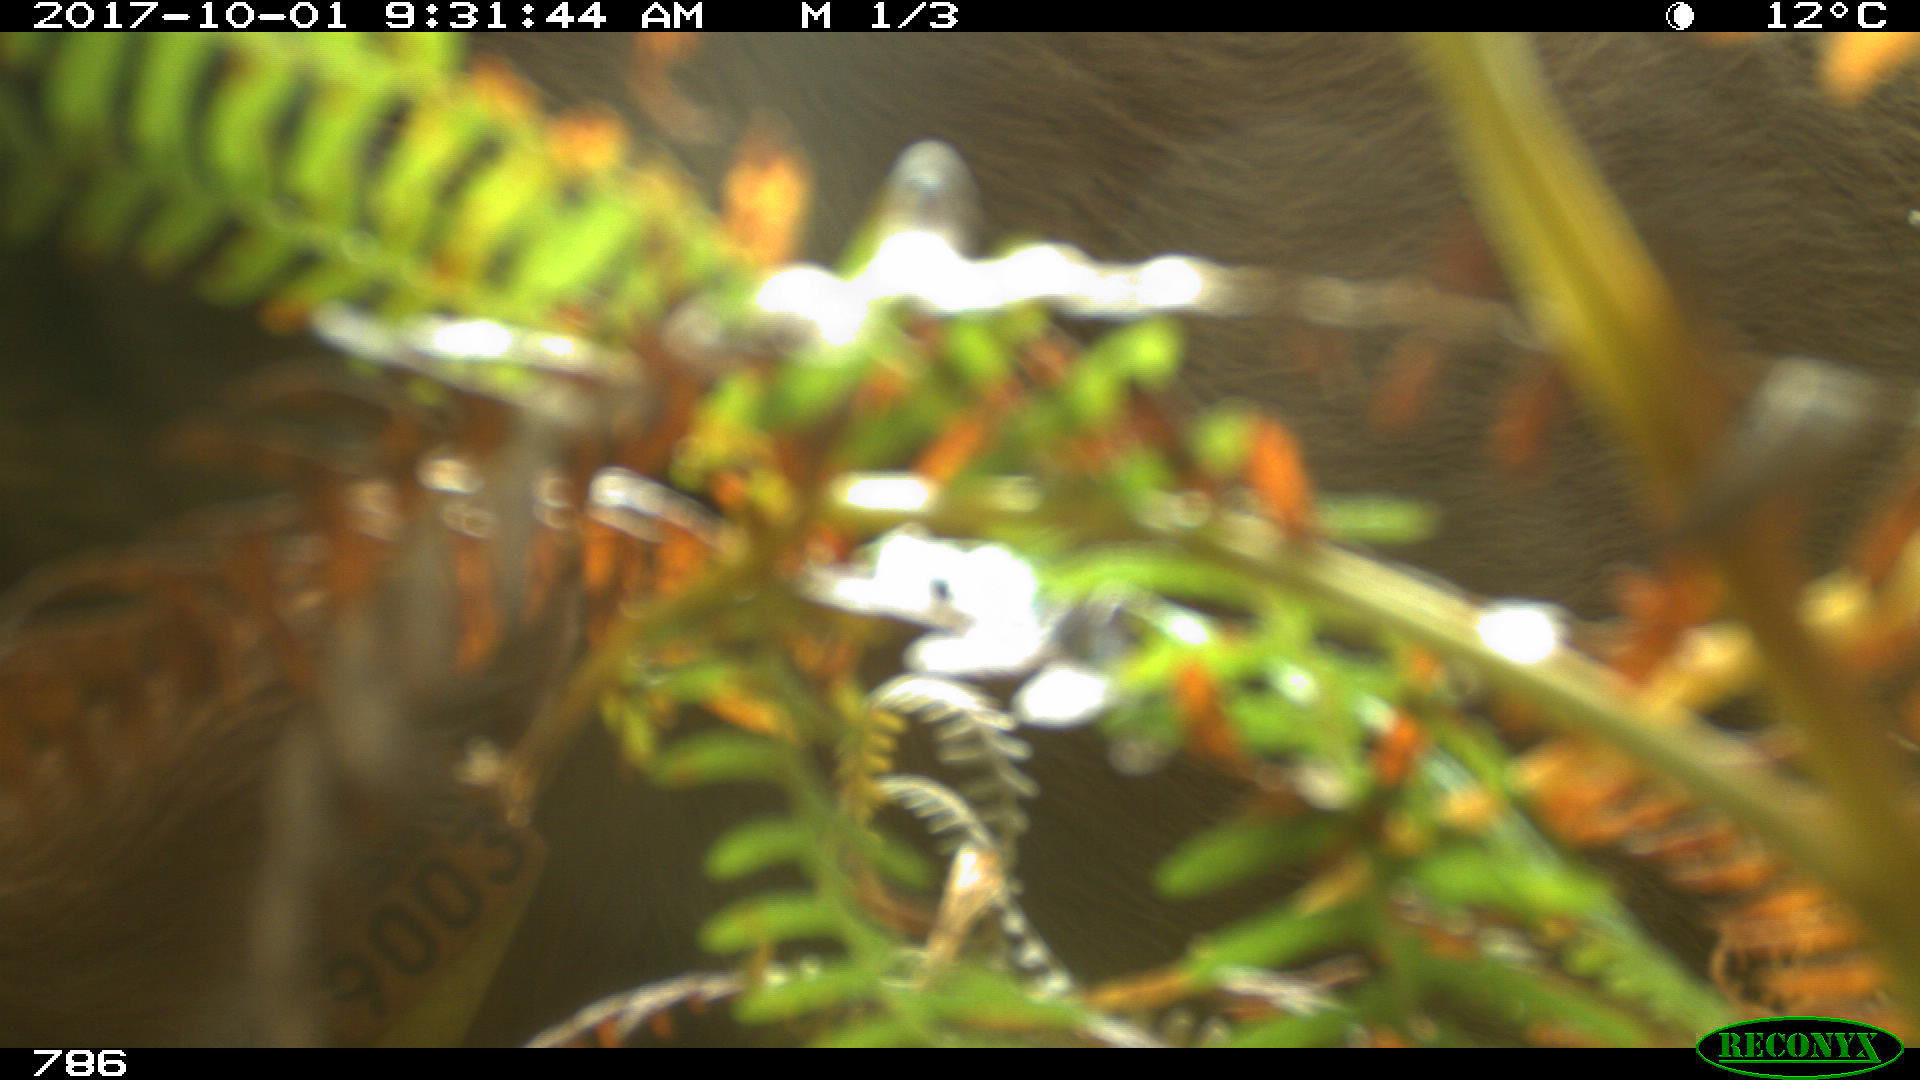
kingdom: Animalia
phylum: Chordata
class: Mammalia
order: Artiodactyla
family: Bovidae
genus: Bos
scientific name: Bos taurus
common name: Domesticated cattle
